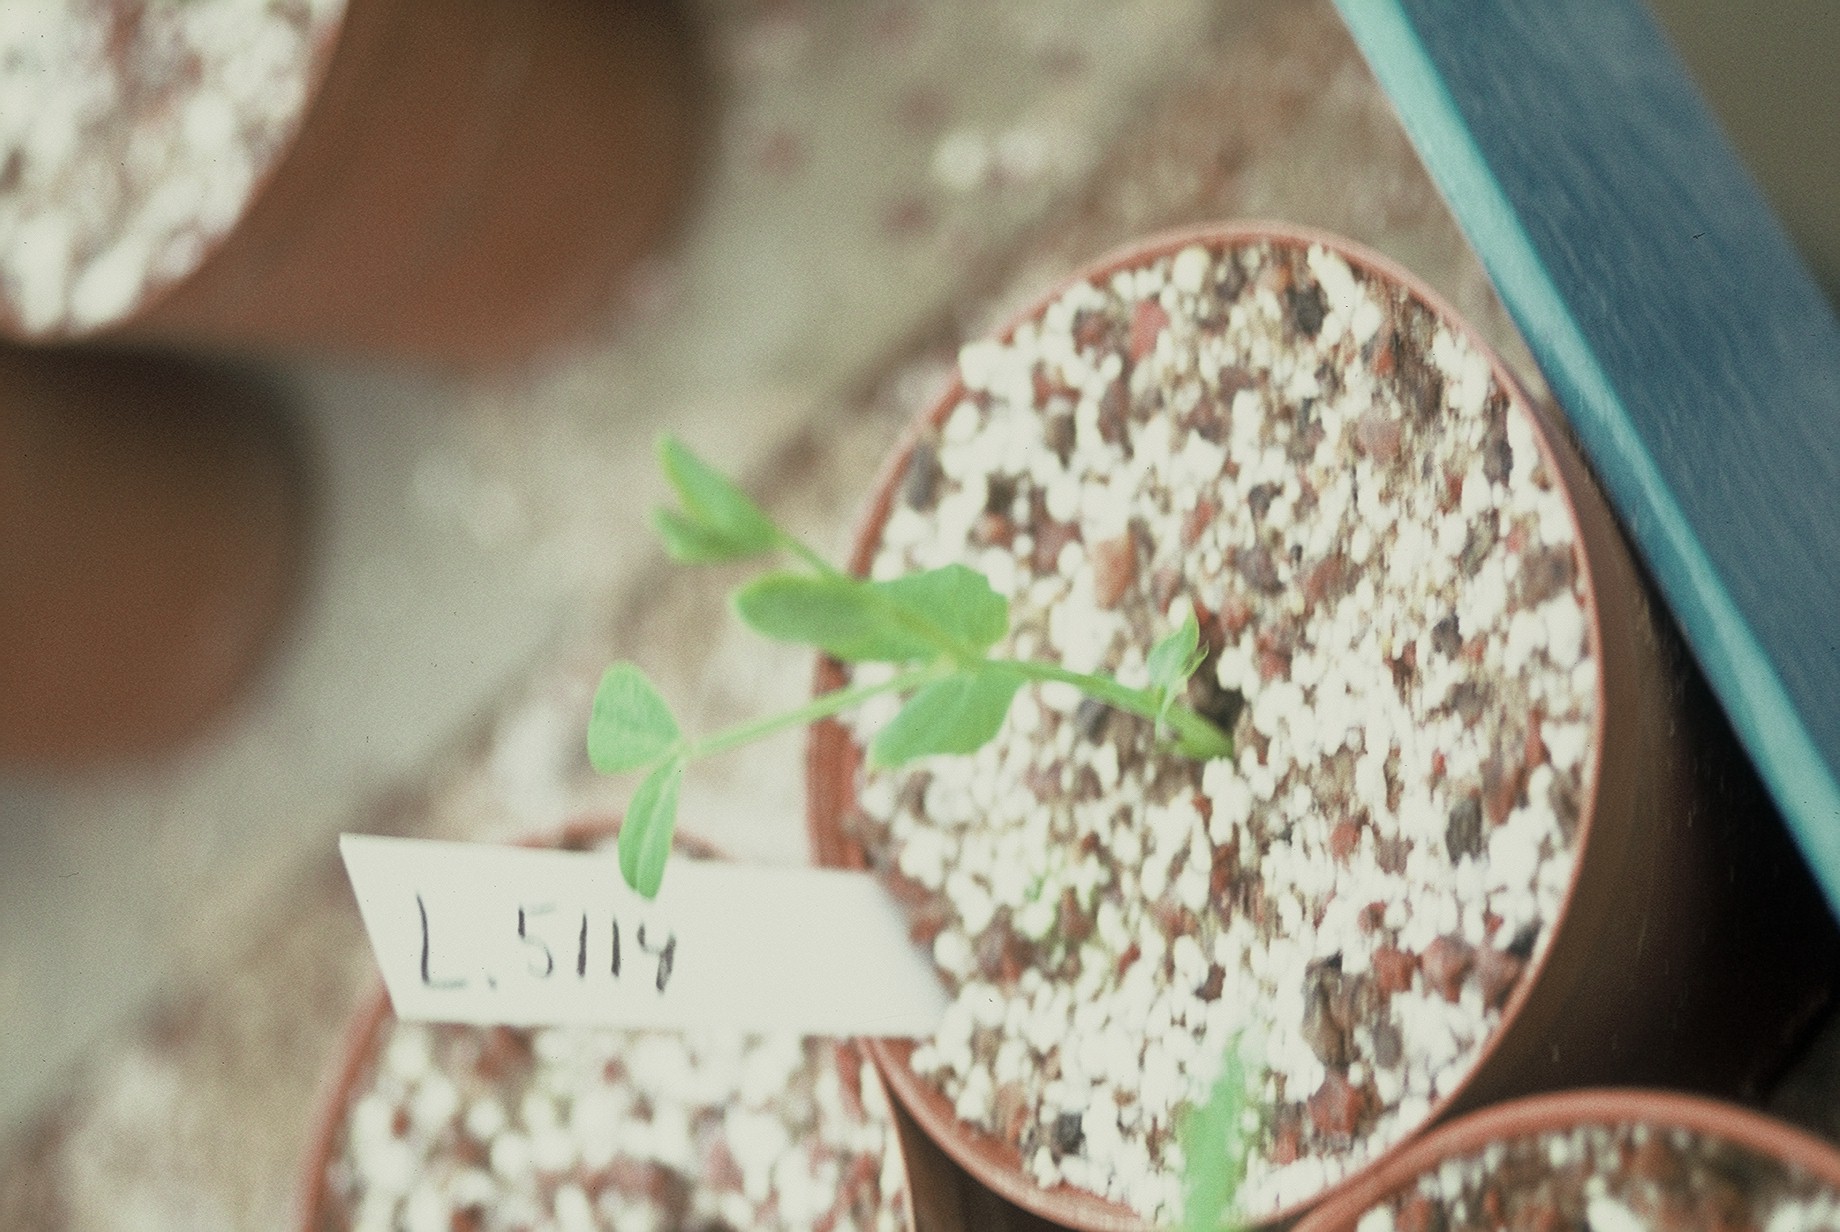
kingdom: Plantae
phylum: Tracheophyta
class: Magnoliopsida
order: Fabales
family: Fabaceae
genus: Lathyrus
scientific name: Lathyrus oleraceus
